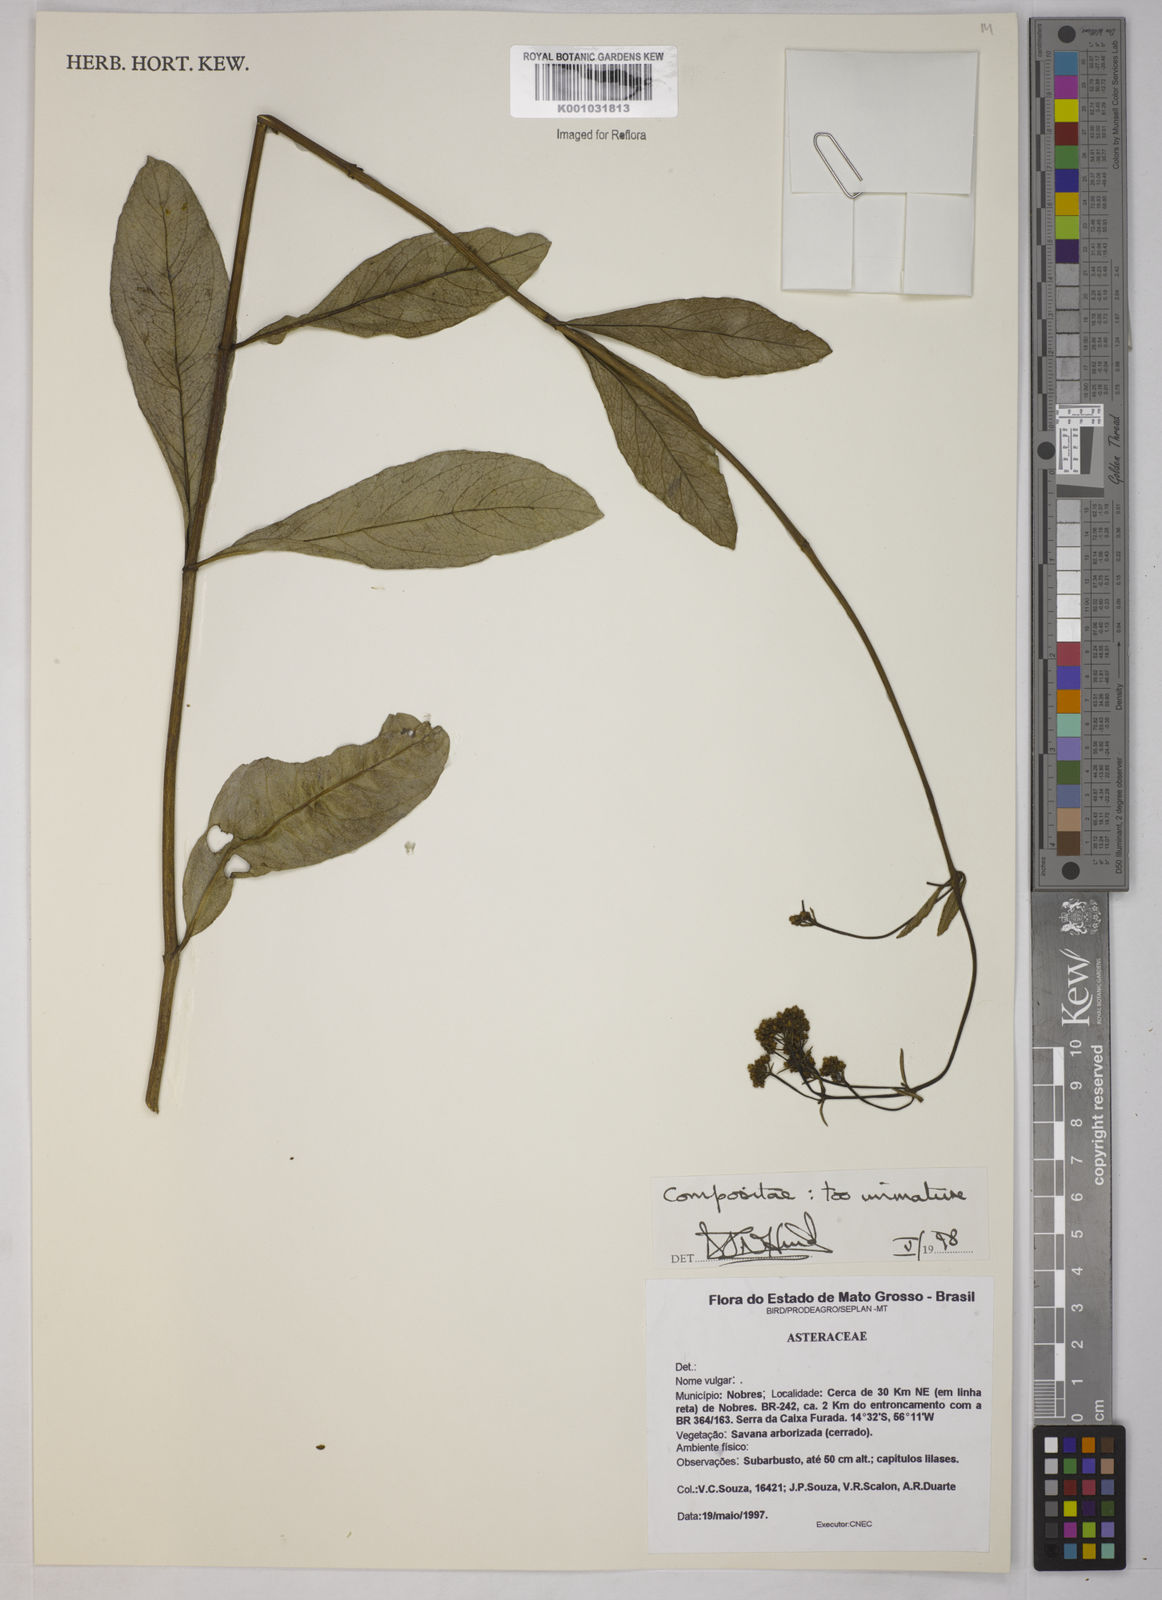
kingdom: Plantae
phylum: Tracheophyta
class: Magnoliopsida
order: Asterales
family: Asteraceae
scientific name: Asteraceae
